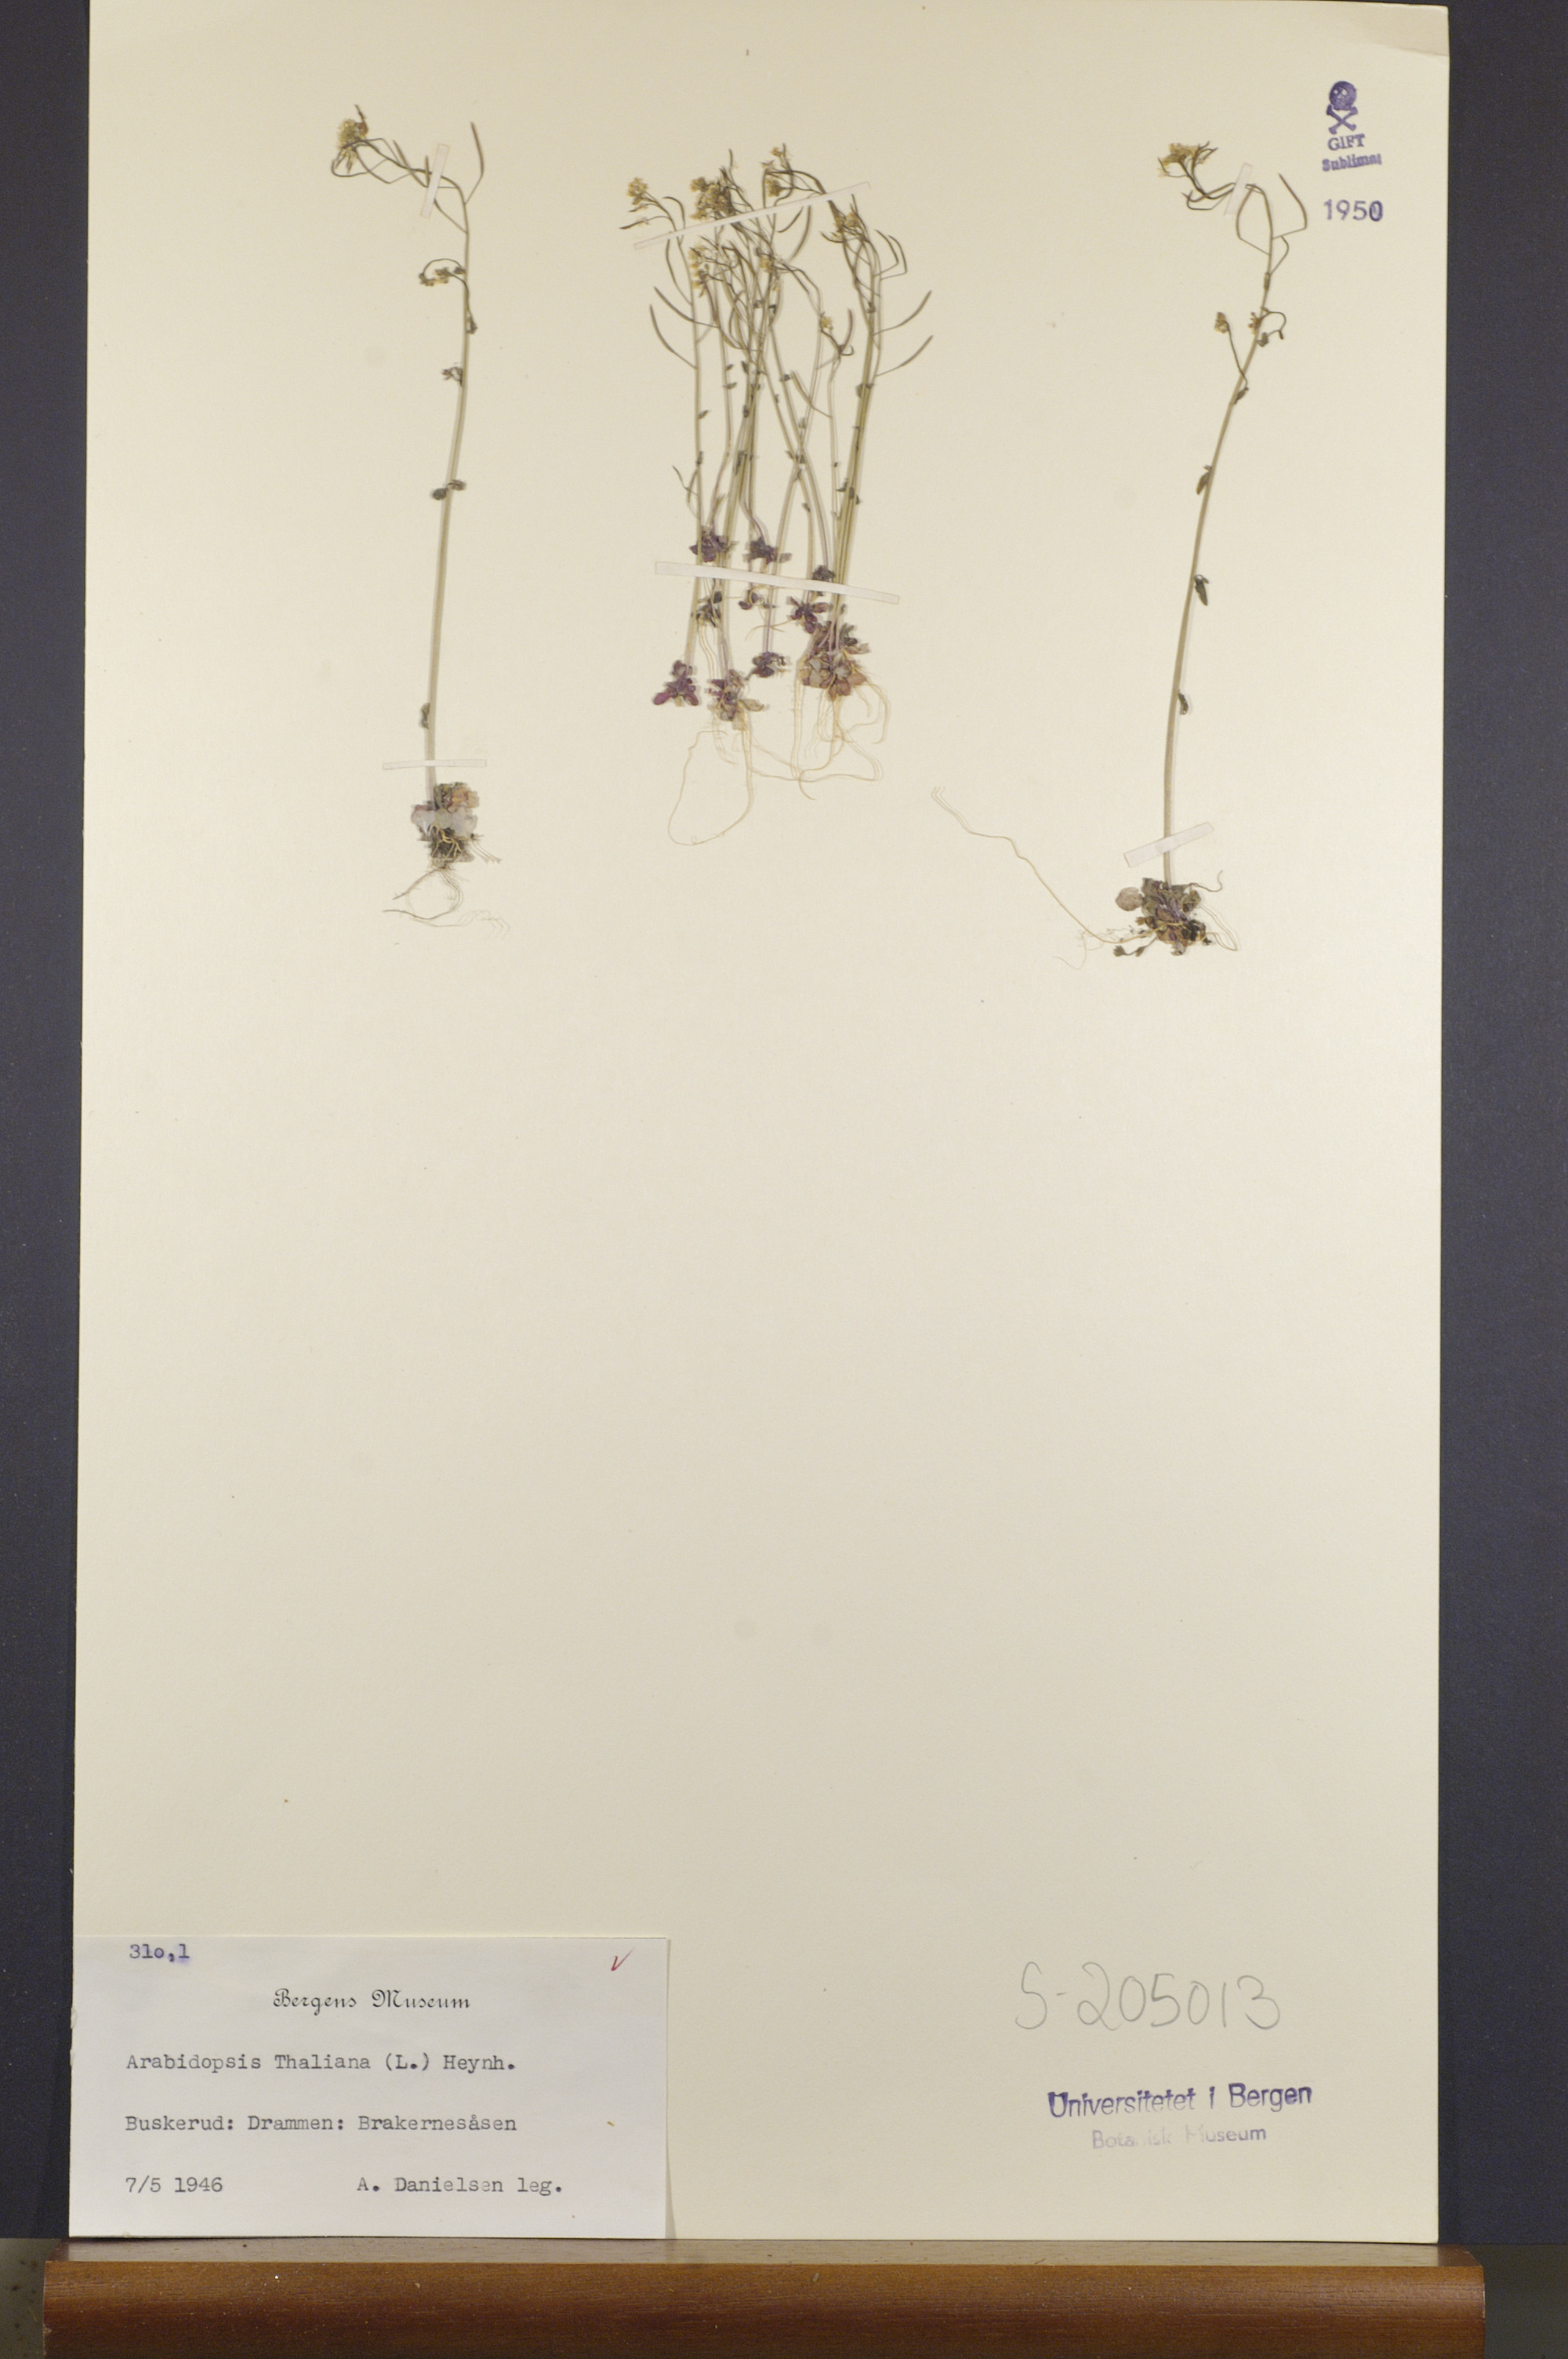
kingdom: Plantae
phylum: Tracheophyta
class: Magnoliopsida
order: Brassicales
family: Brassicaceae
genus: Arabidopsis
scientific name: Arabidopsis thaliana
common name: Thale cress
